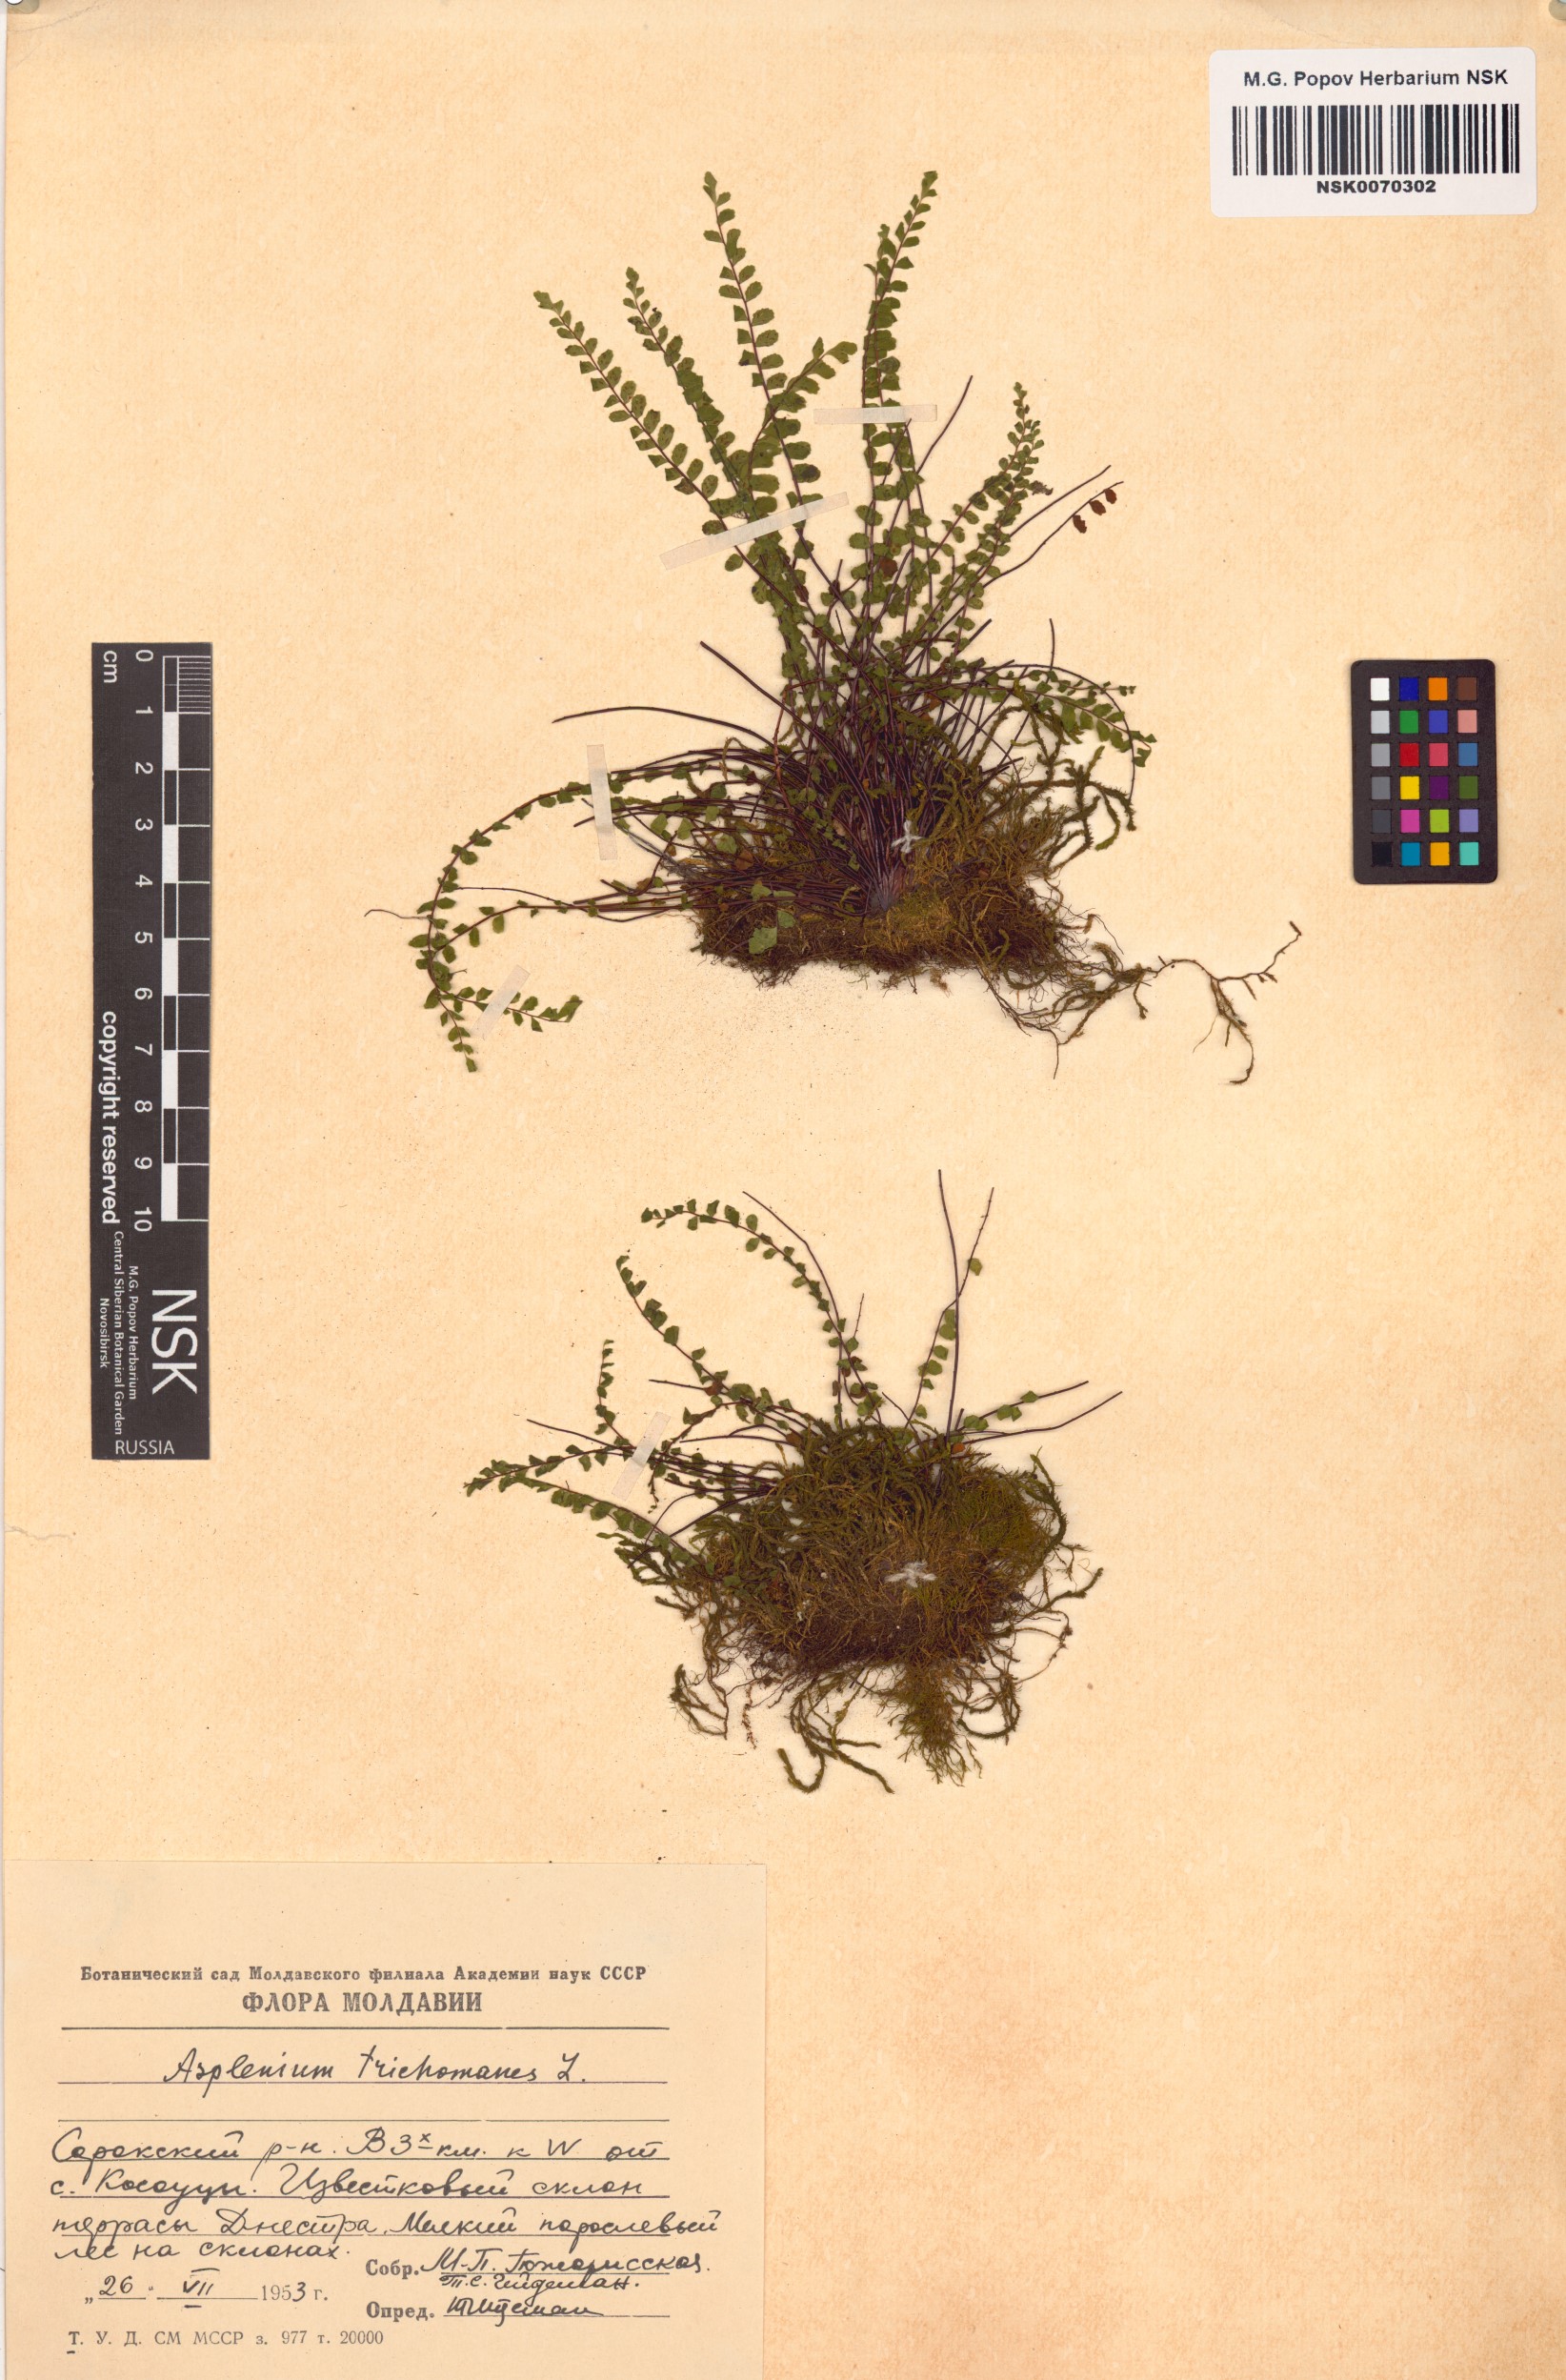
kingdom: Plantae
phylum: Tracheophyta
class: Polypodiopsida
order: Polypodiales
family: Aspleniaceae
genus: Asplenium
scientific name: Asplenium trichomanes
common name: Maidenhair spleenwort
